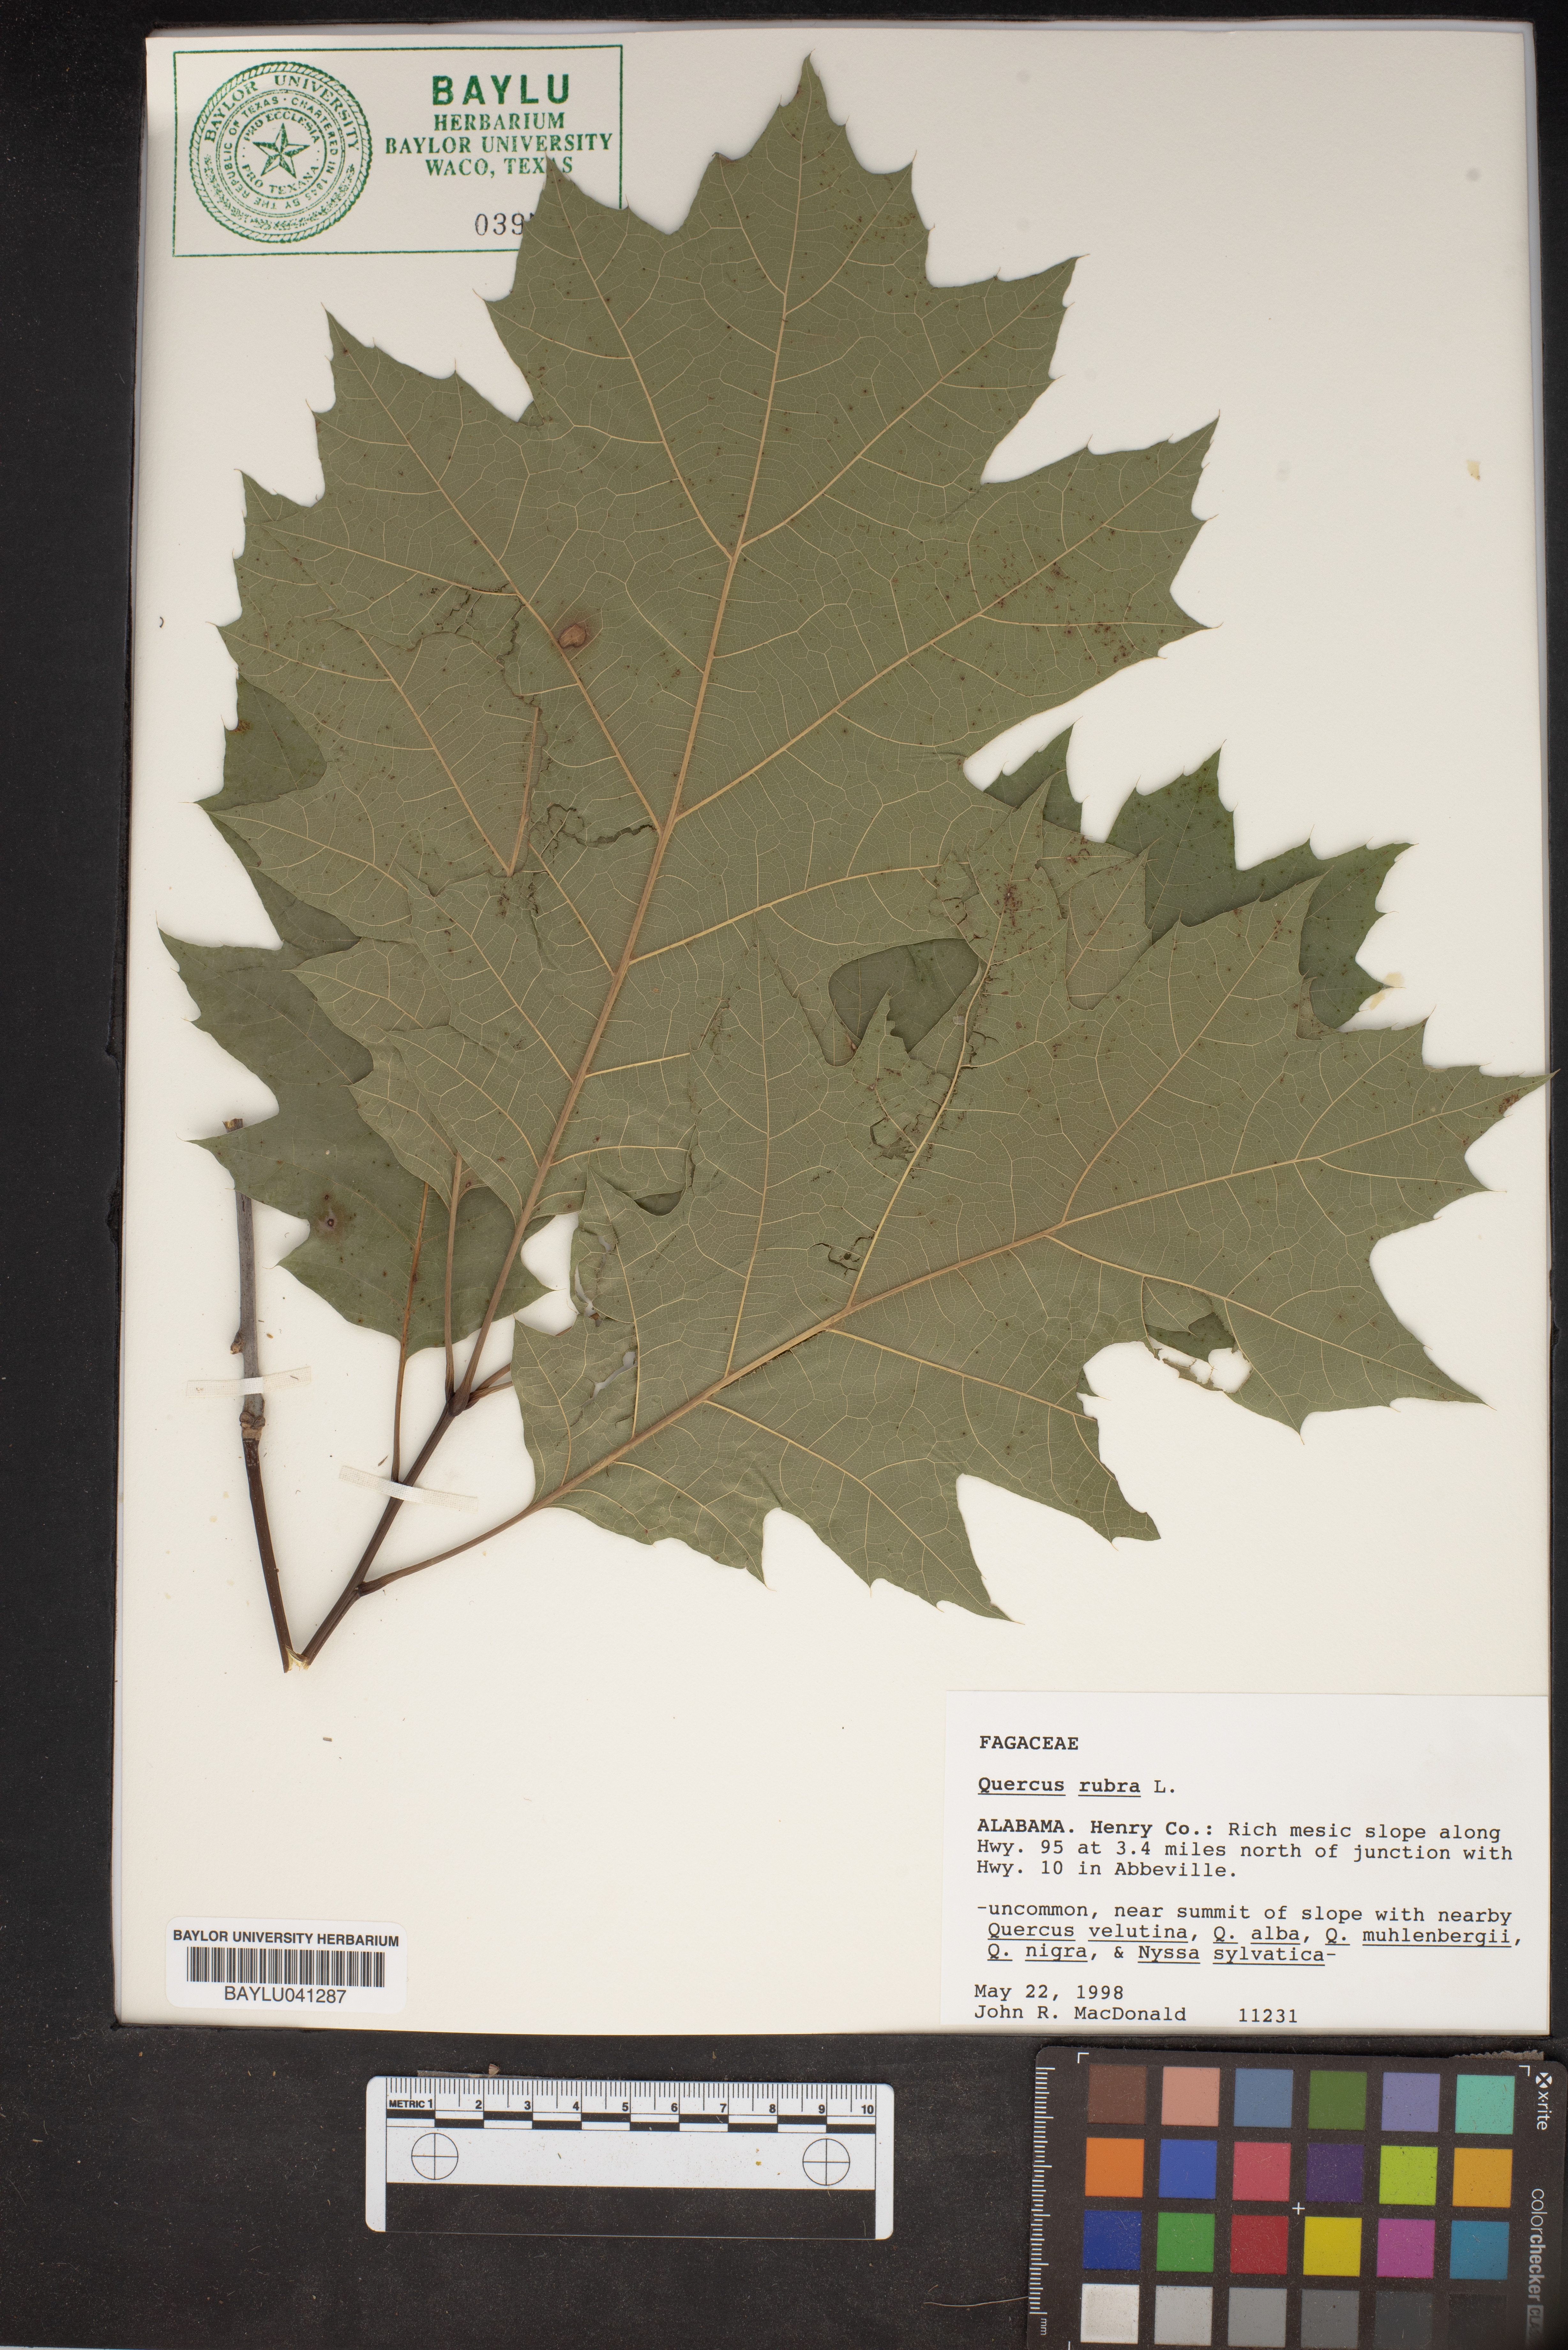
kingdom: Plantae
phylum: Tracheophyta
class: Magnoliopsida
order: Fagales
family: Fagaceae
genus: Quercus
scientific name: Quercus rubra
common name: Red oak
